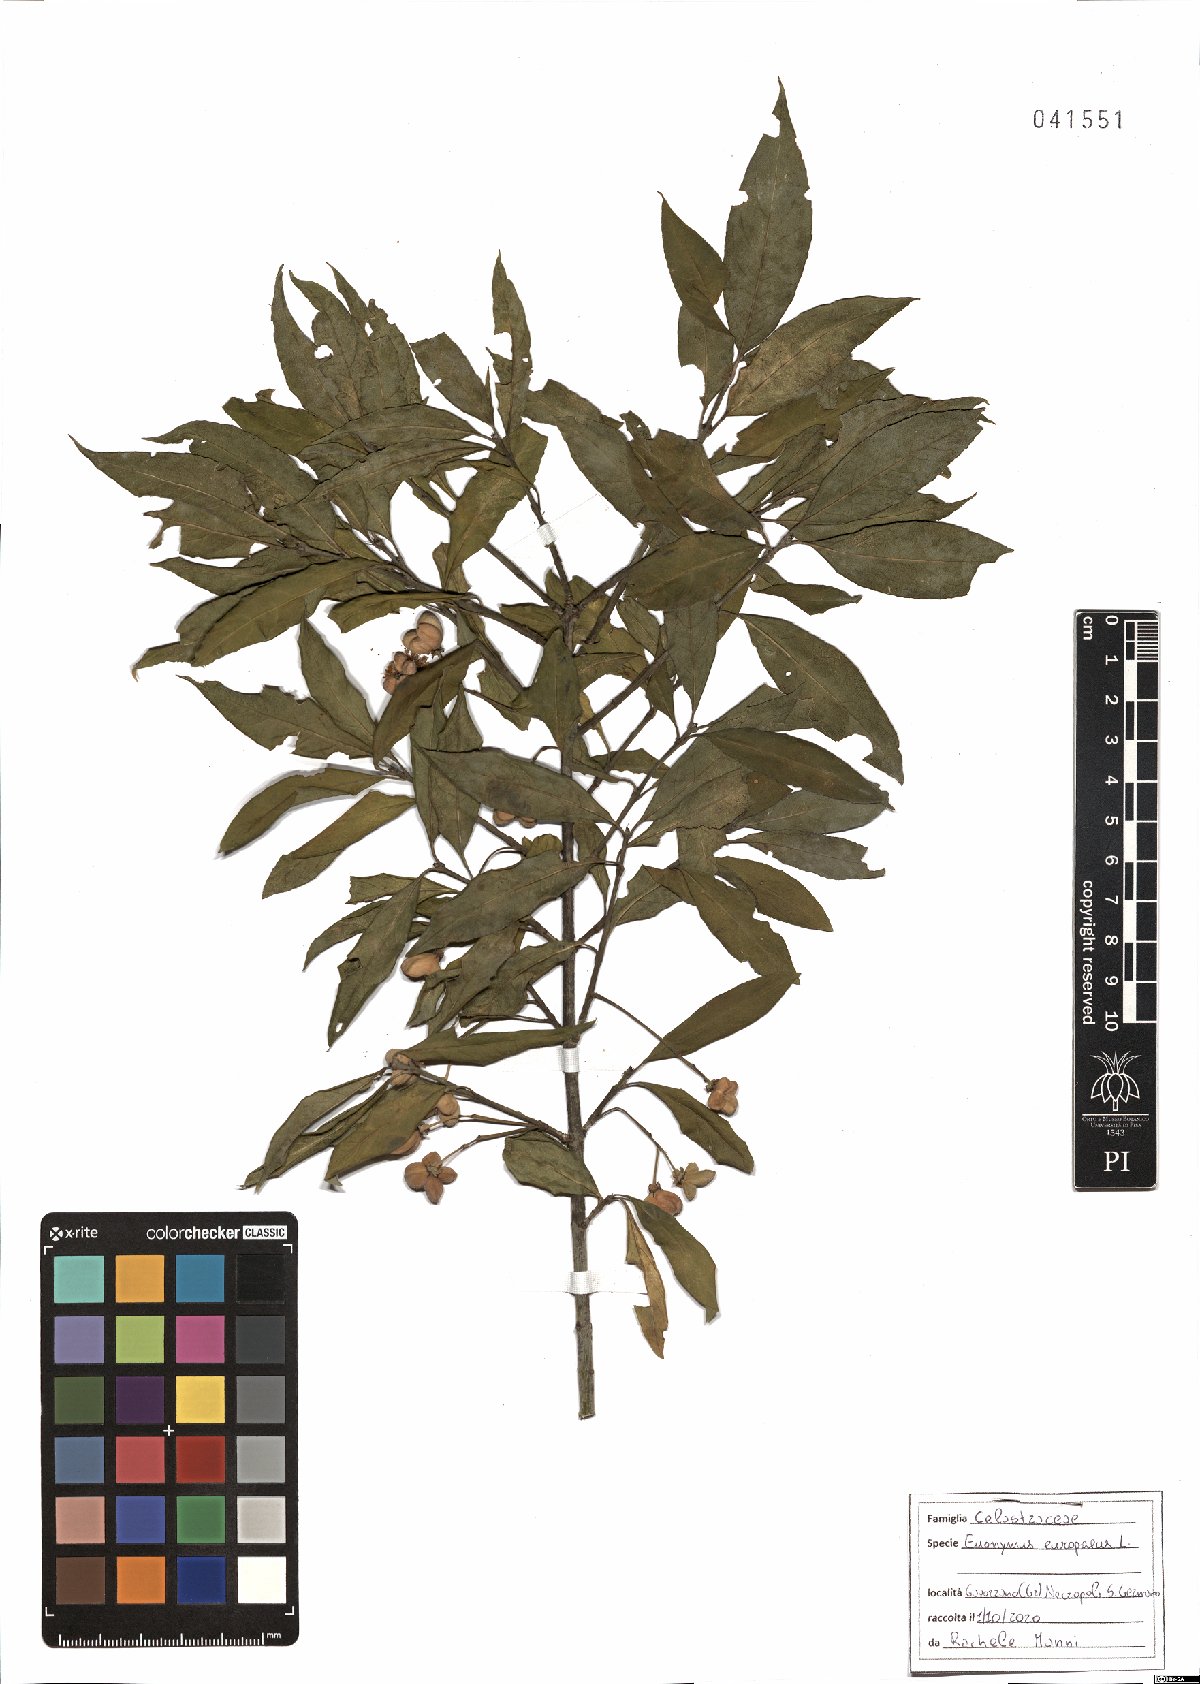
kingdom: Plantae
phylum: Tracheophyta
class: Magnoliopsida
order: Celastrales
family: Celastraceae
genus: Euonymus
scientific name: Euonymus europaeus
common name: Spindle
